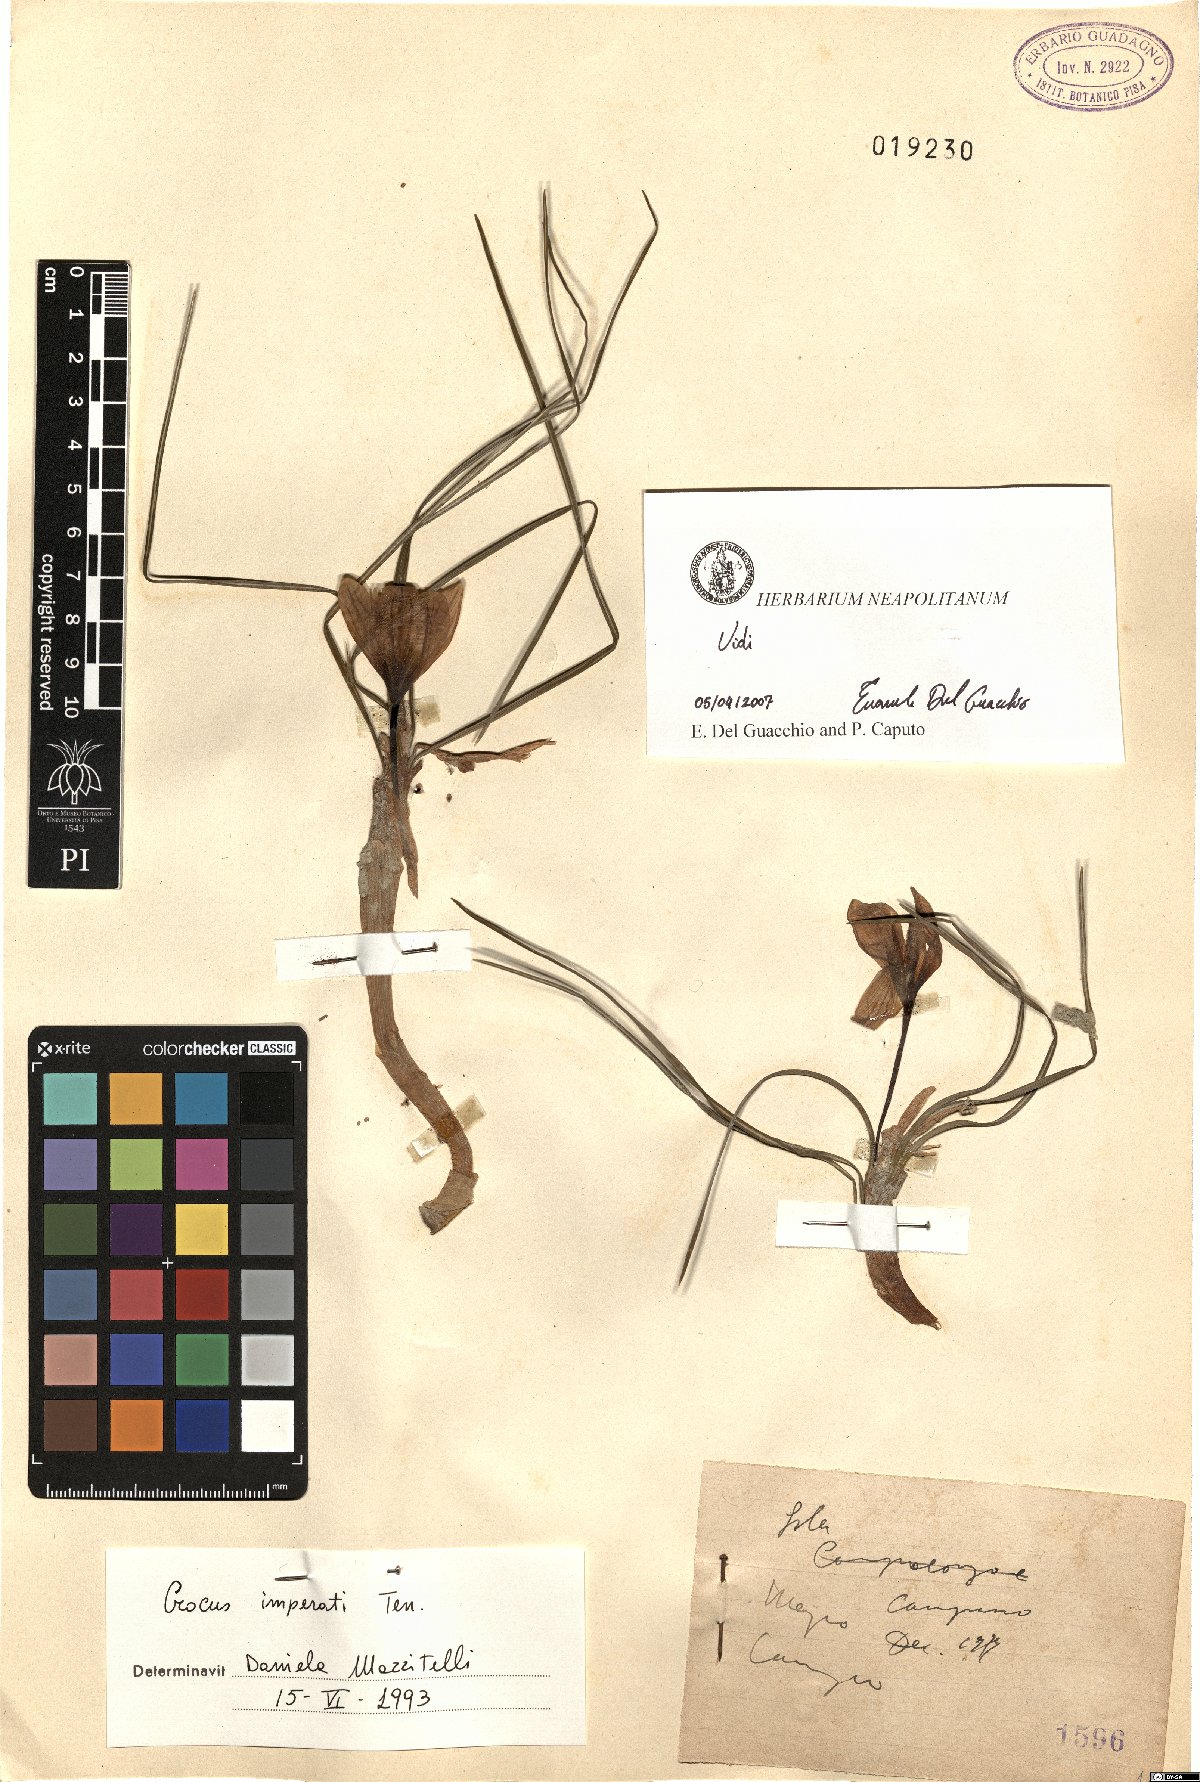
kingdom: Plantae
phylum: Tracheophyta
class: Liliopsida
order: Asparagales
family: Iridaceae
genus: Crocus
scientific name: Crocus imperati
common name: Early crocus
